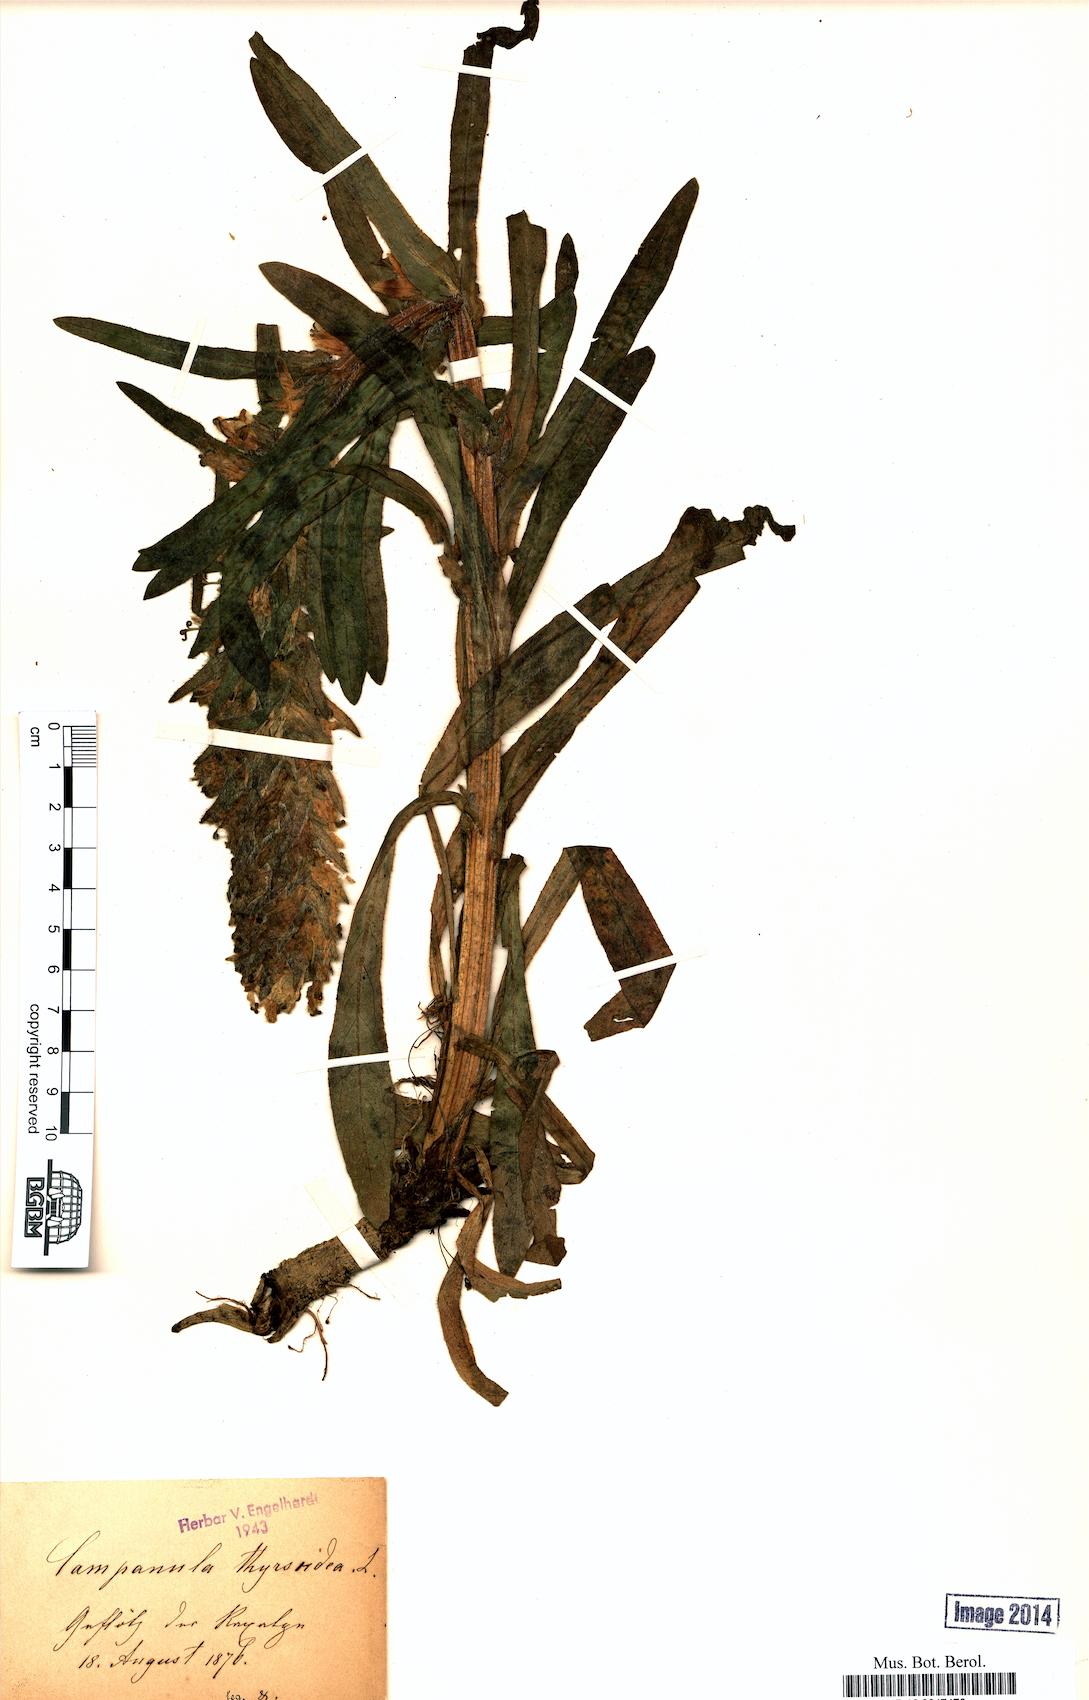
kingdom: Plantae
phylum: Tracheophyta
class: Magnoliopsida
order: Asterales
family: Campanulaceae
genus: Campanula
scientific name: Campanula thyrsoides
